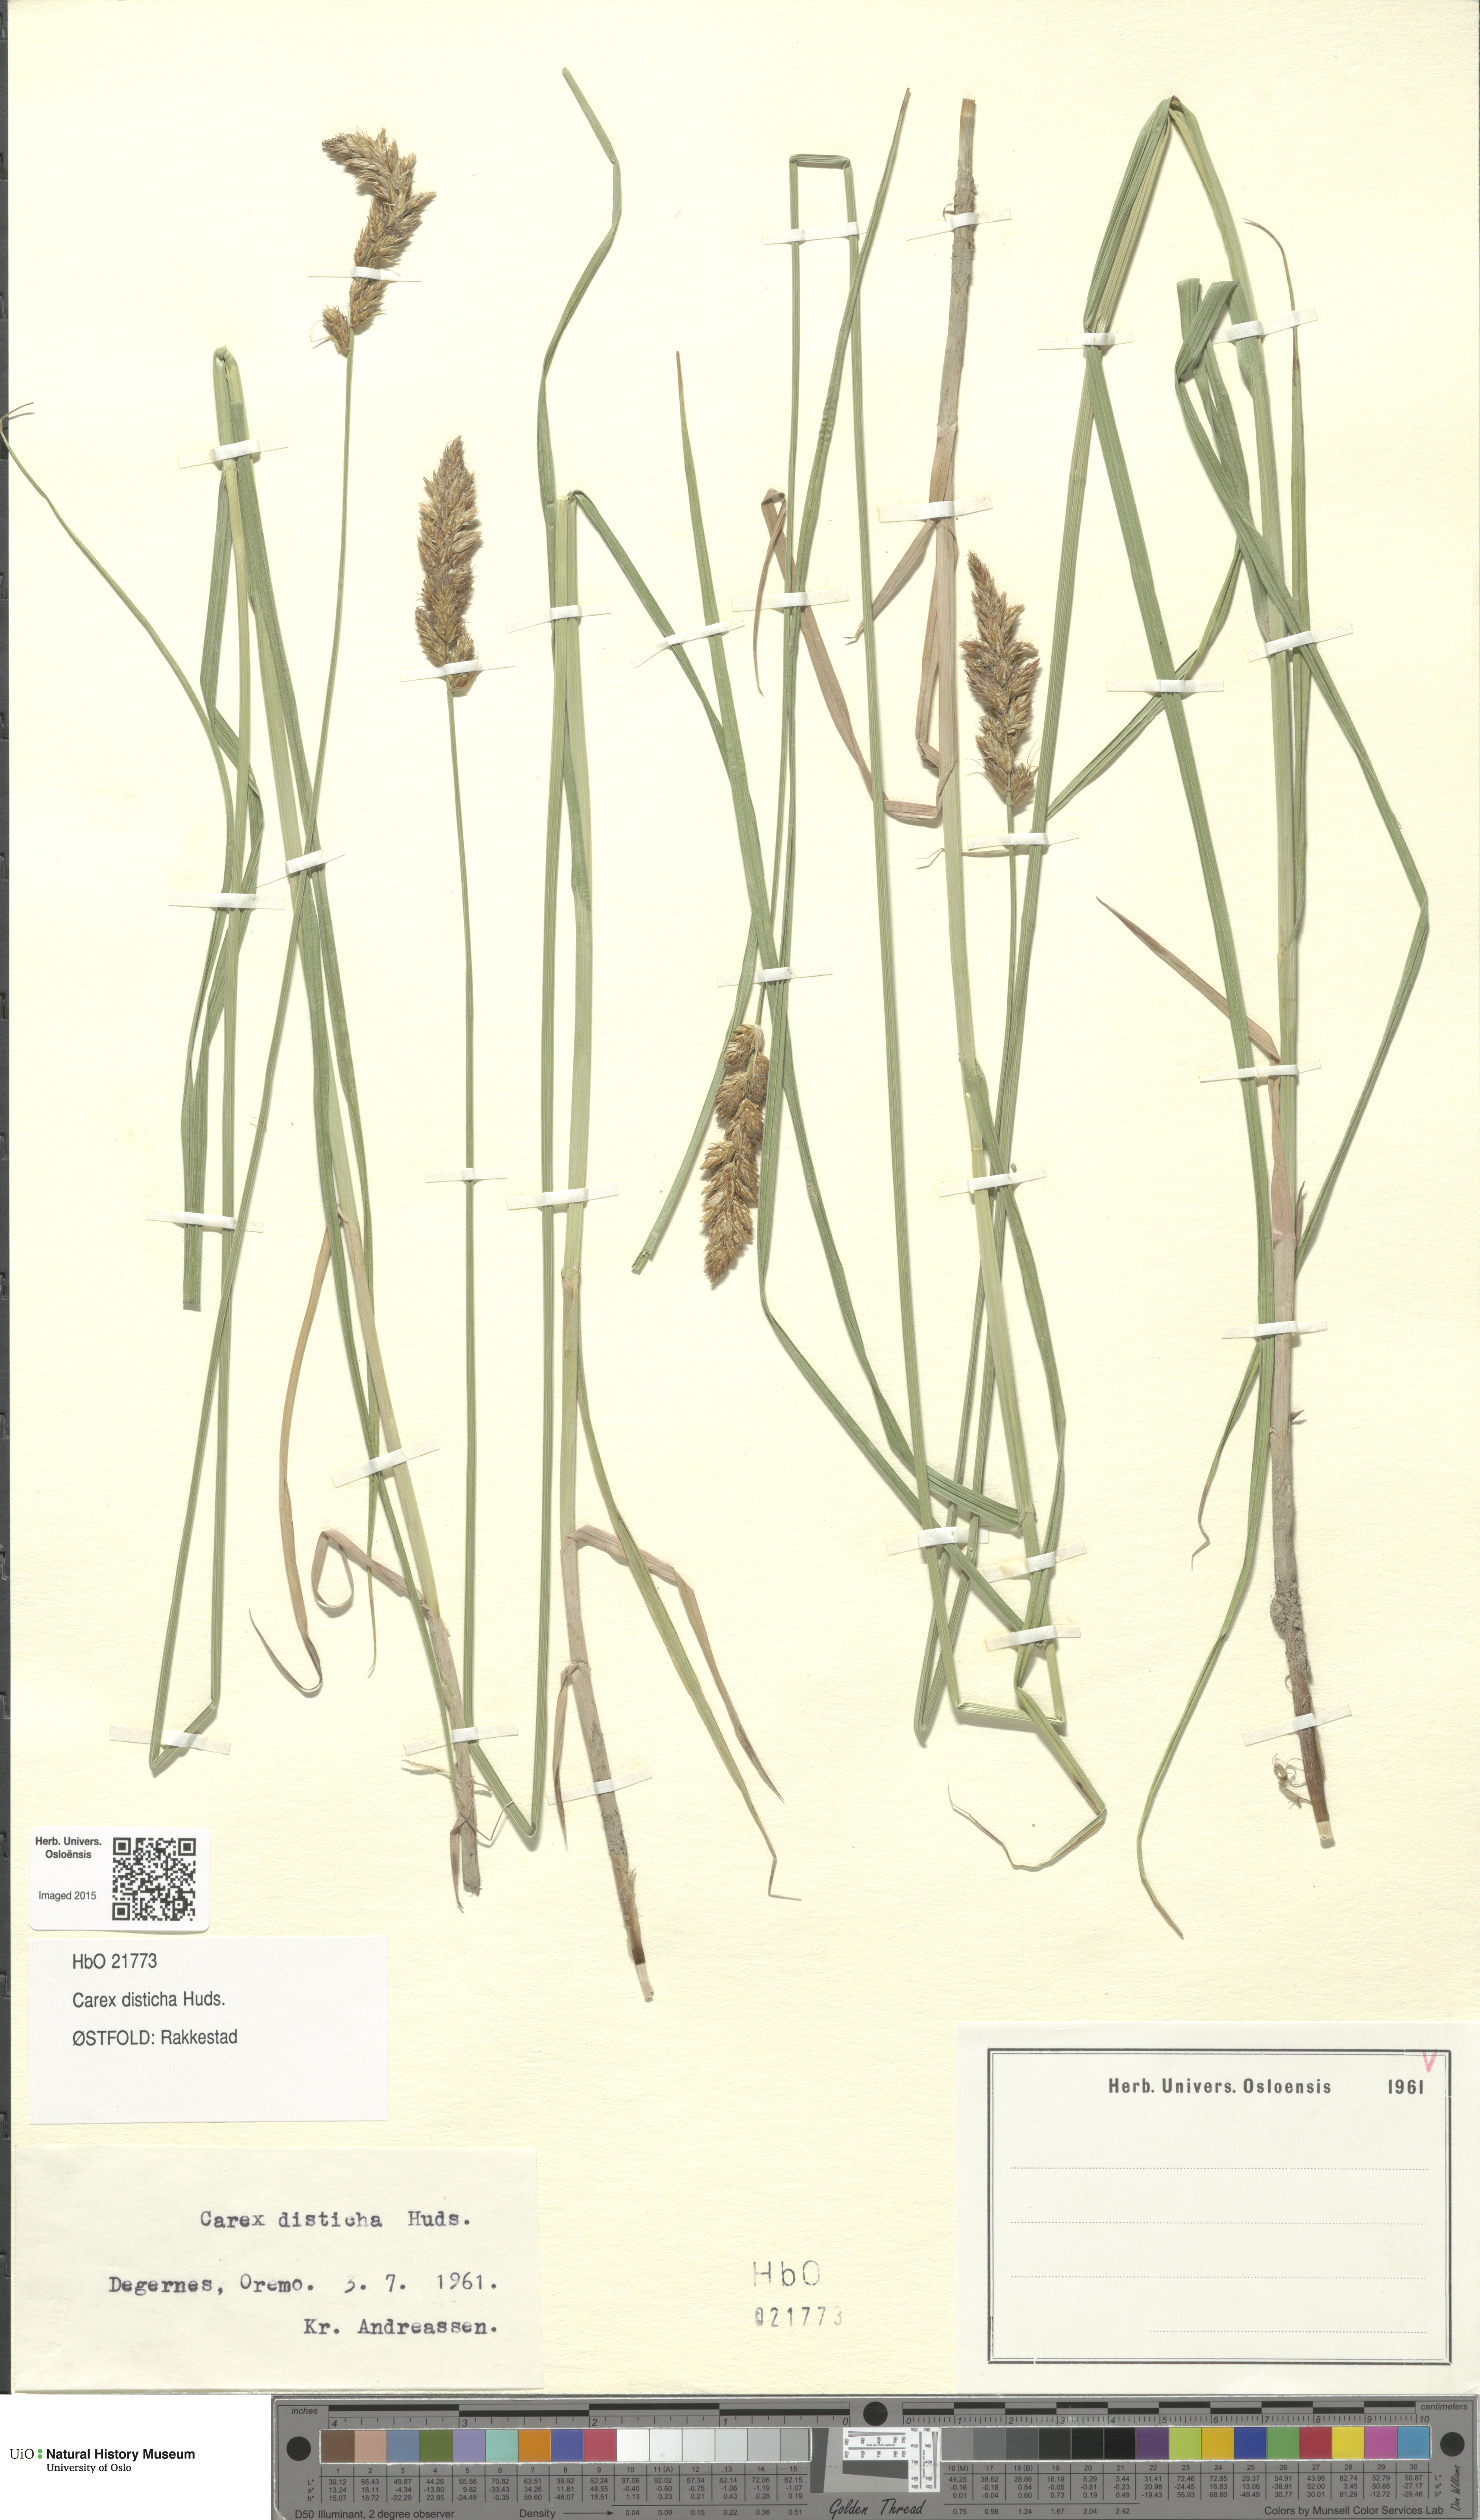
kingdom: Plantae
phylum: Tracheophyta
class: Liliopsida
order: Poales
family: Cyperaceae
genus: Carex
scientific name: Carex disticha
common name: Brown sedge
